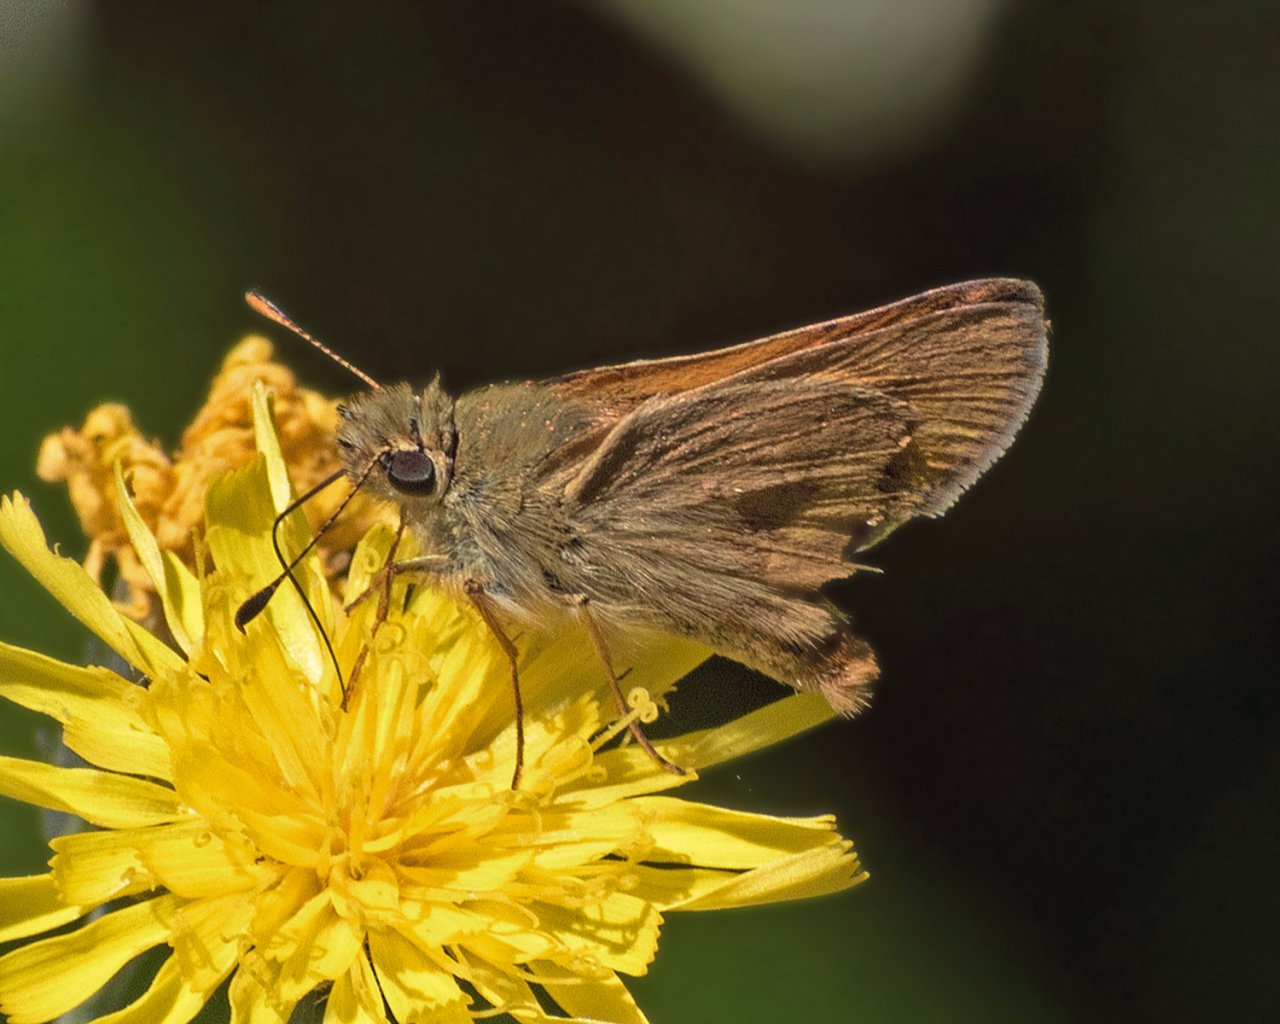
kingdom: Animalia
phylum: Arthropoda
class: Insecta
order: Lepidoptera
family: Hesperiidae
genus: Polites
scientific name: Polites themistocles
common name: Tawny-edged Skipper
